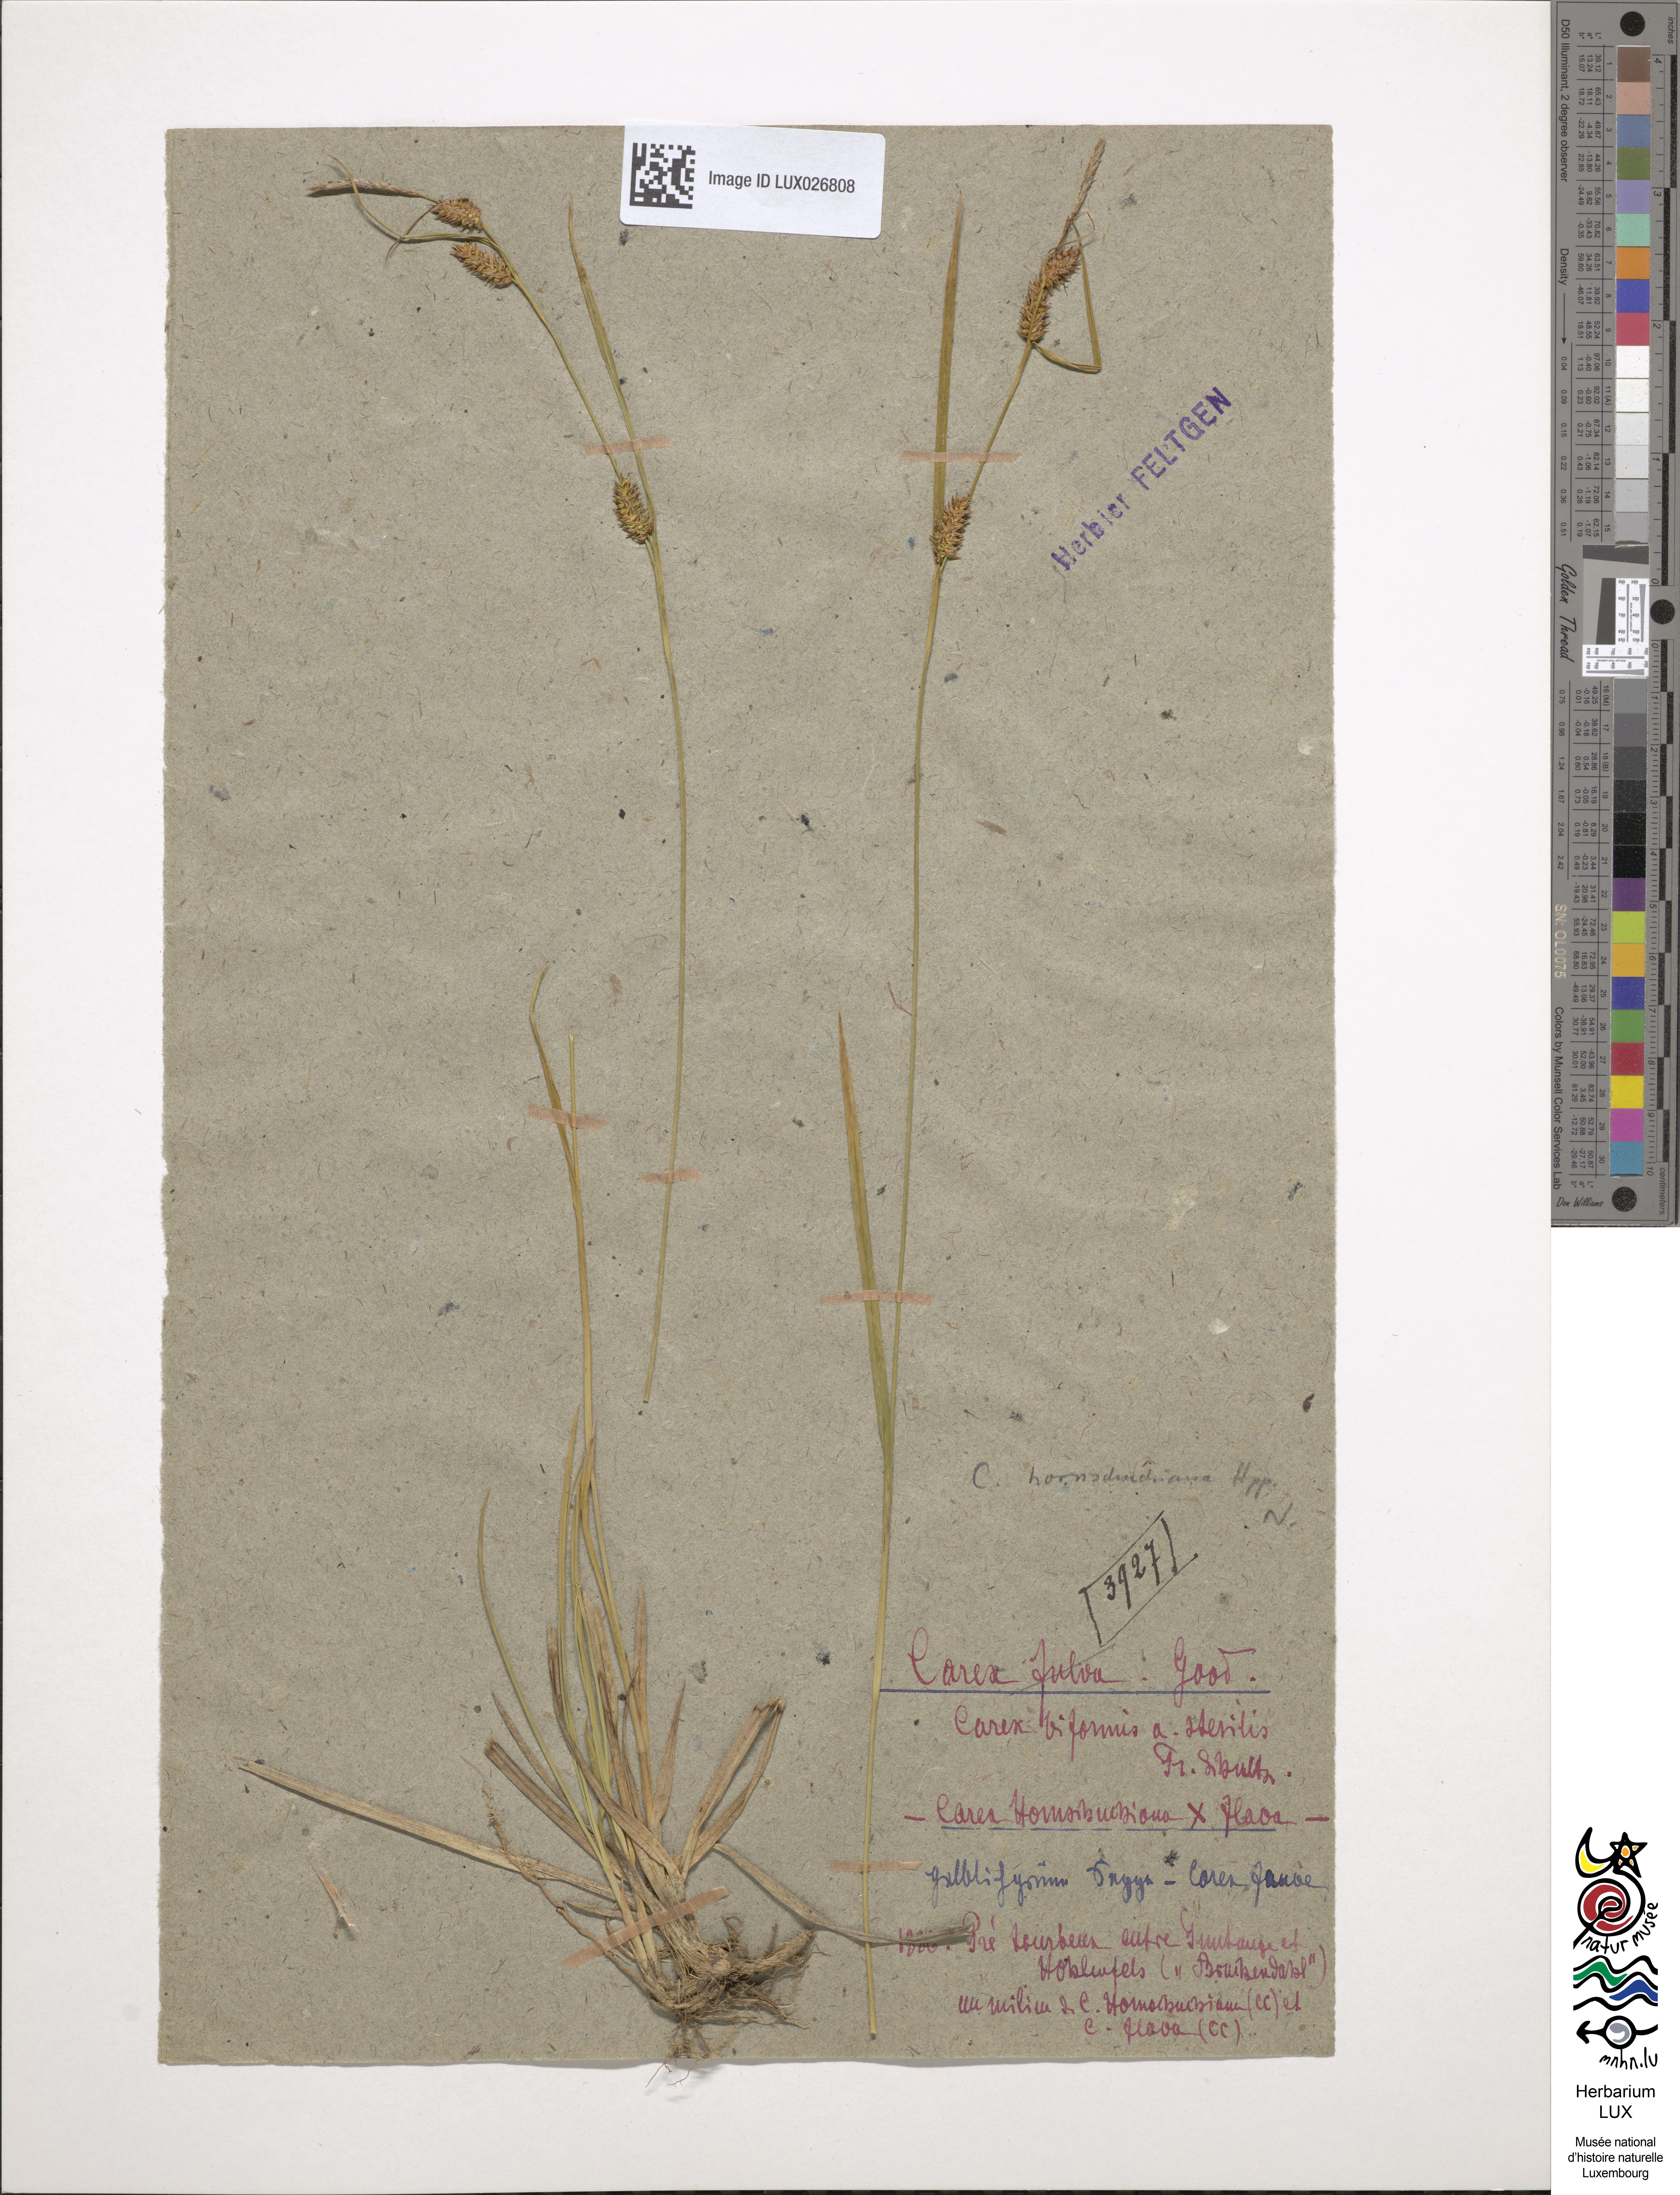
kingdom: Plantae
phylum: Tracheophyta
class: Liliopsida
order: Poales
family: Cyperaceae
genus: Carex
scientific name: Carex fulva
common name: Leutz's sedge
